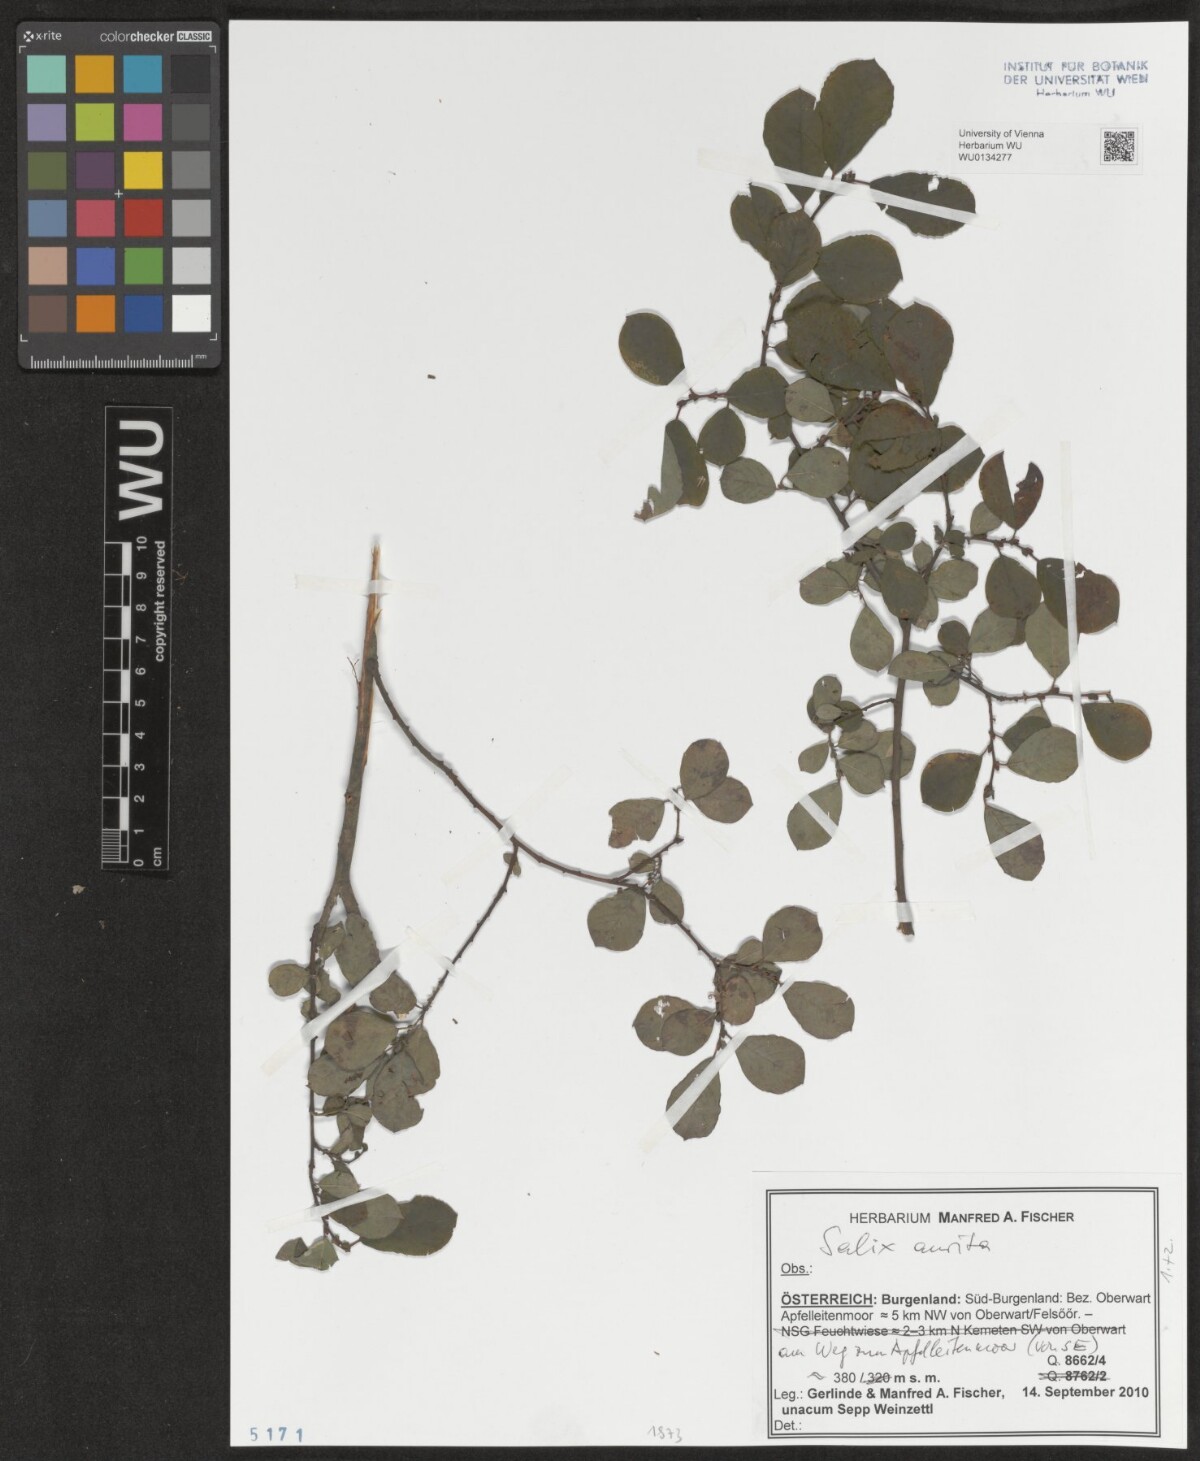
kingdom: Plantae
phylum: Tracheophyta
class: Magnoliopsida
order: Malpighiales
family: Salicaceae
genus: Salix
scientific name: Salix aurita
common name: Eared willow
